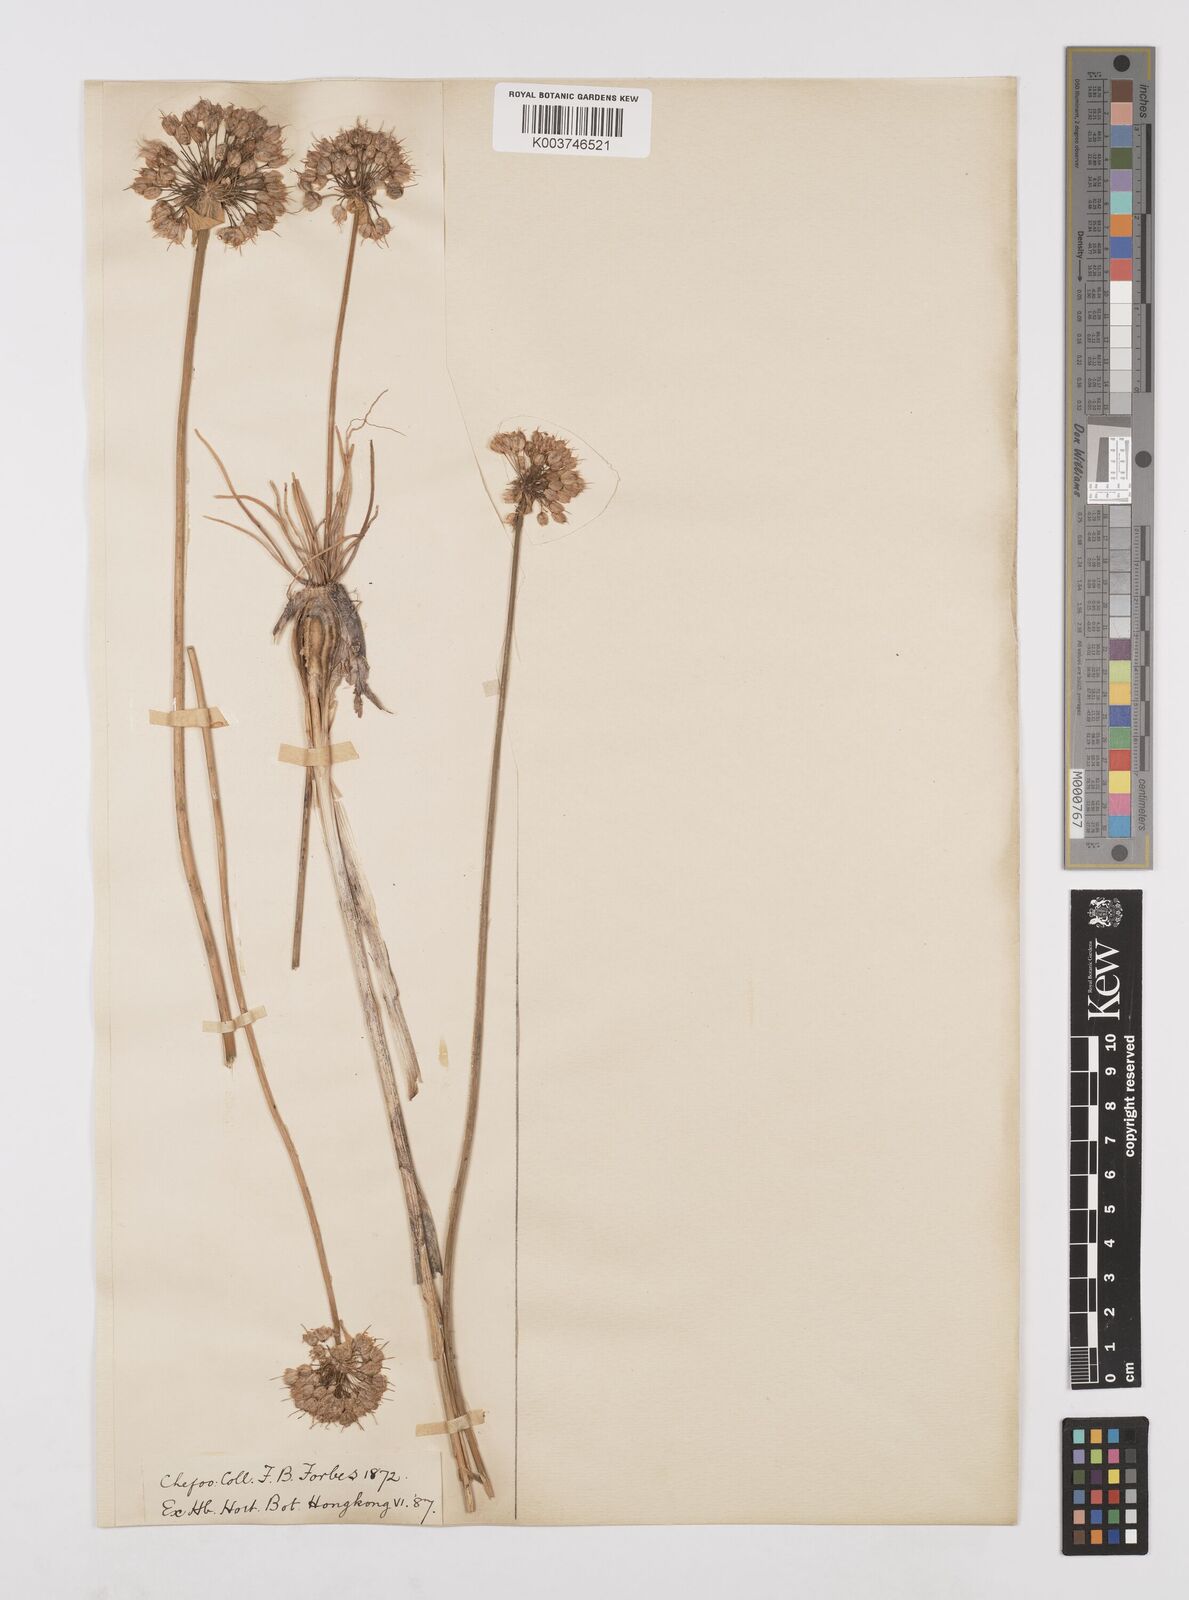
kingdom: Plantae
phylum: Tracheophyta
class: Liliopsida
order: Asparagales
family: Amaryllidaceae
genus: Allium
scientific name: Allium chinense
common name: Japanese scallion
